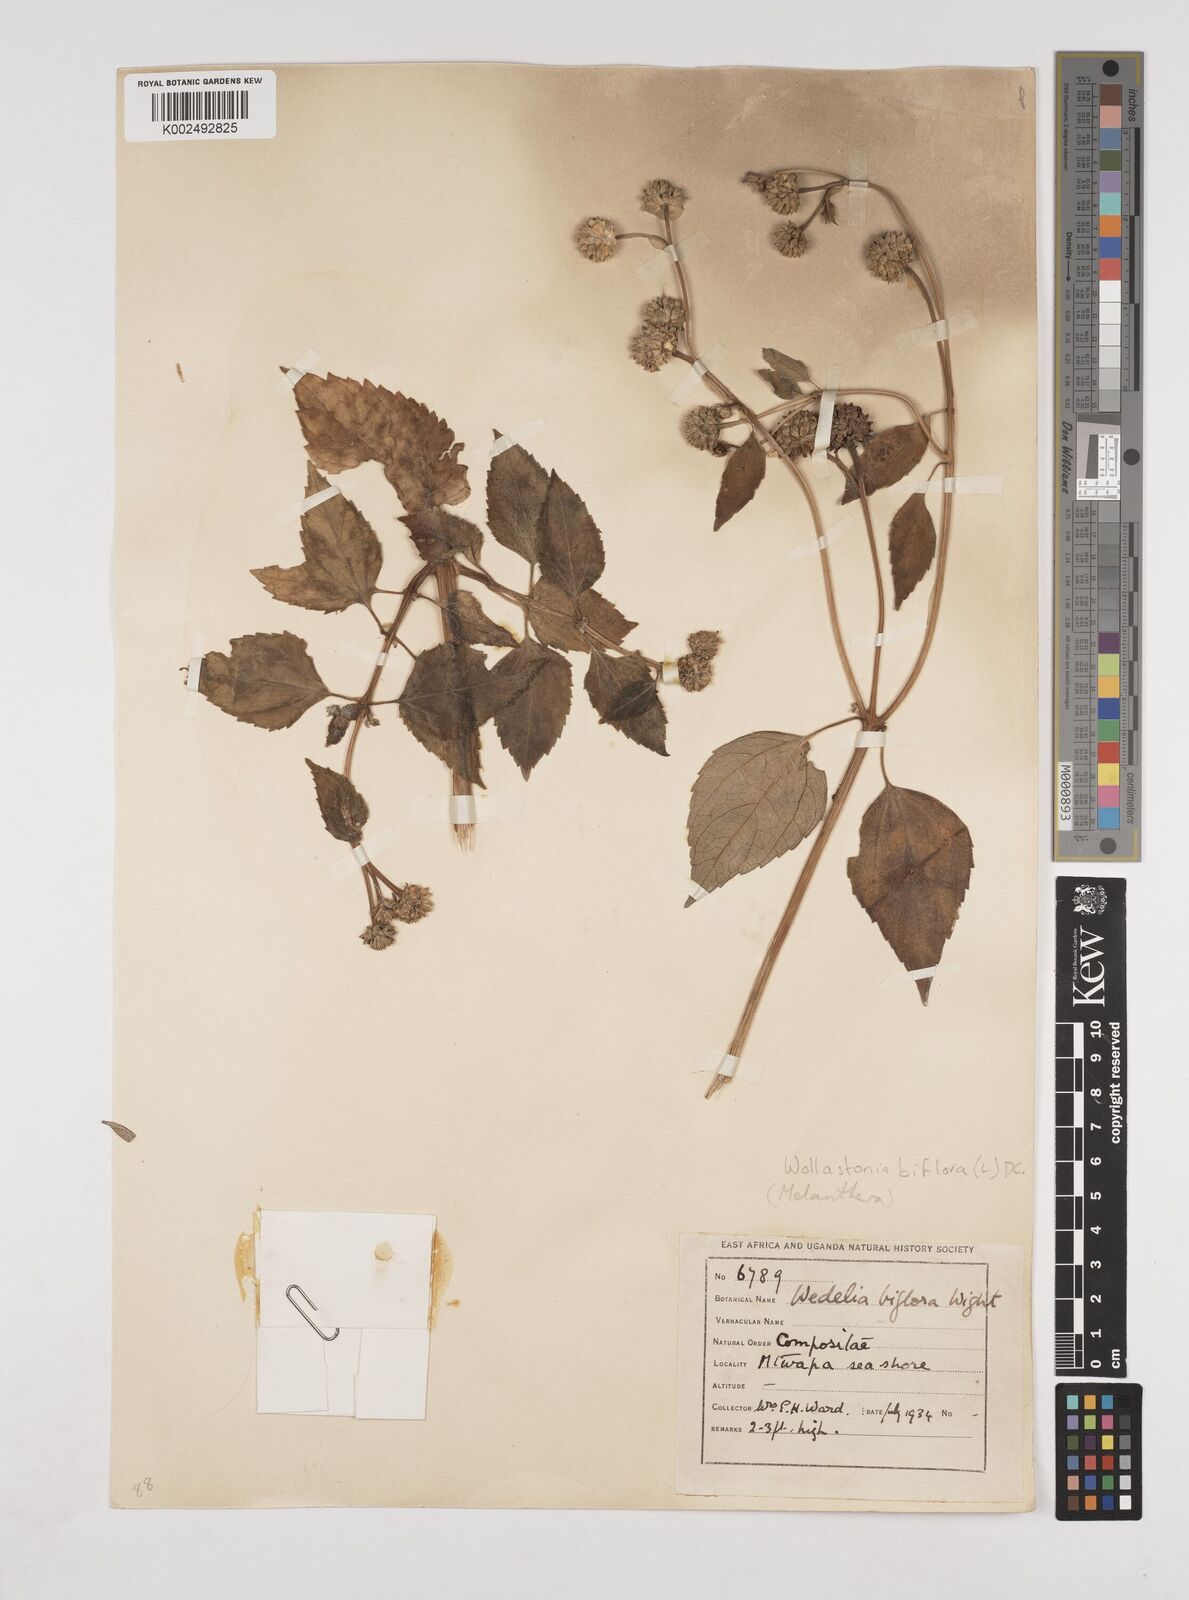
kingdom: Plantae
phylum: Tracheophyta
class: Magnoliopsida
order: Asterales
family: Asteraceae
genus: Wollastonia
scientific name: Wollastonia biflora
